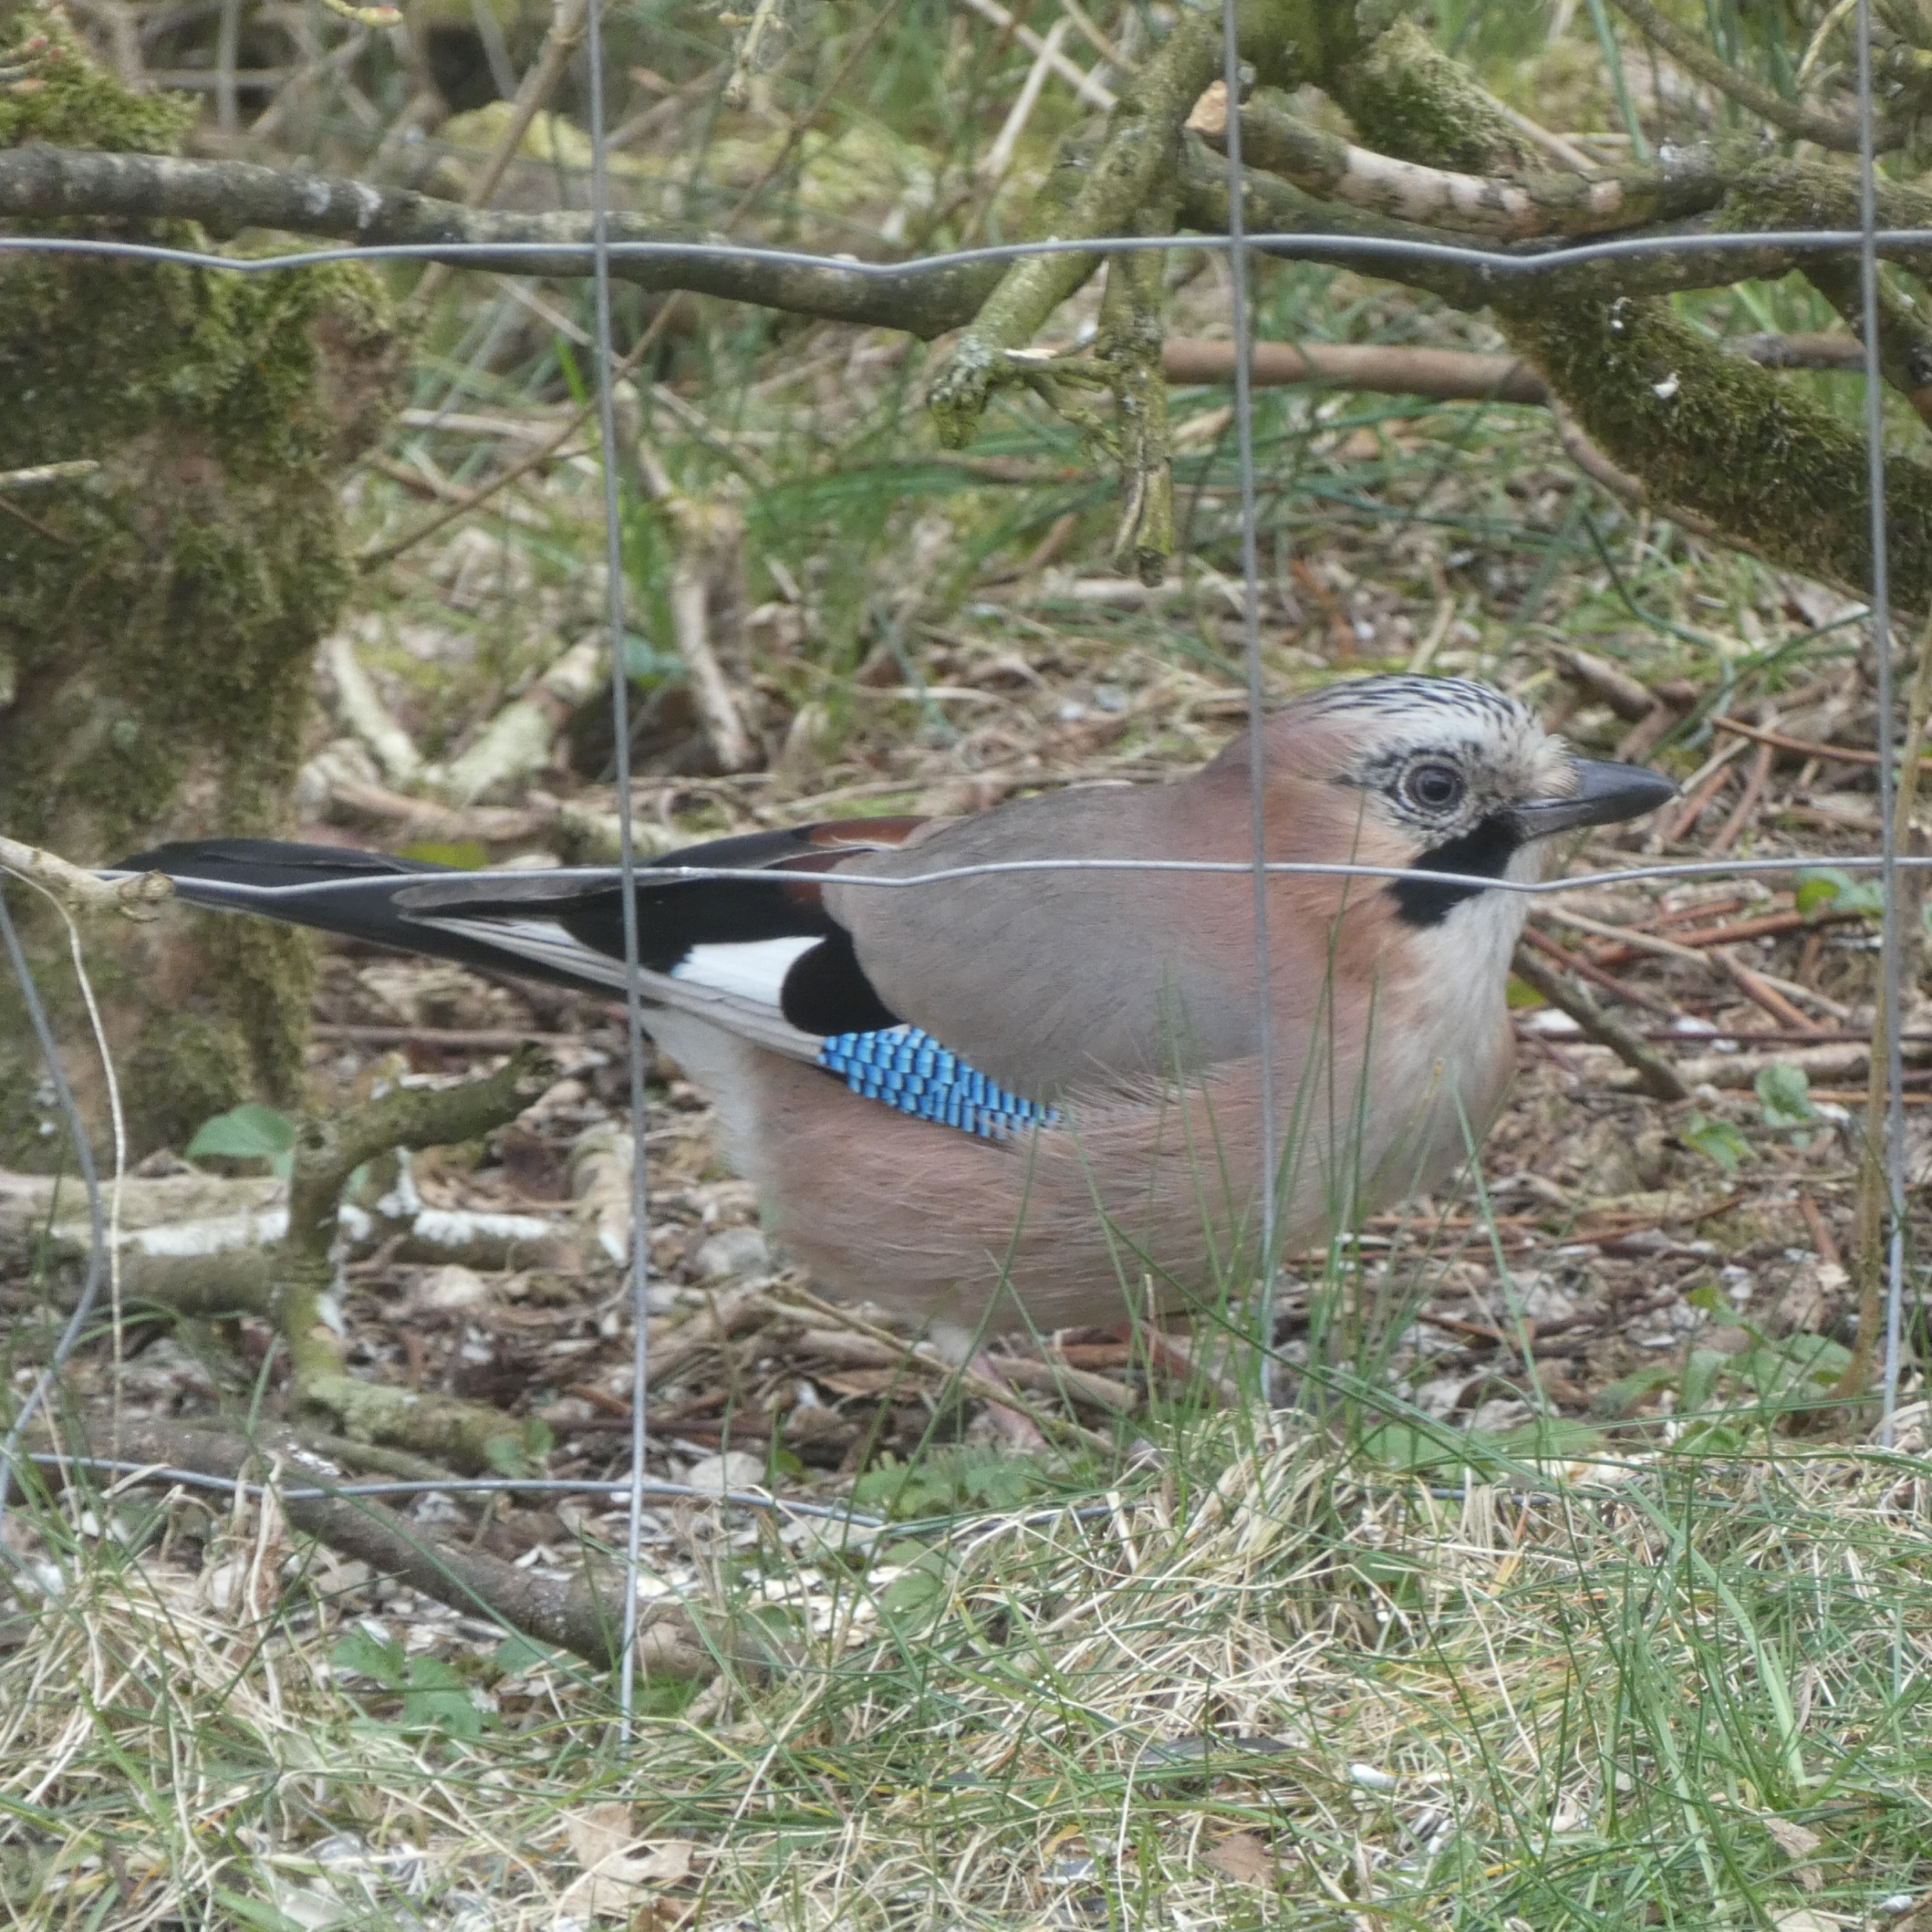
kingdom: Animalia
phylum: Chordata
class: Aves
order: Passeriformes
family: Corvidae
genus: Garrulus
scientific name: Garrulus glandarius
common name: Skovskade
